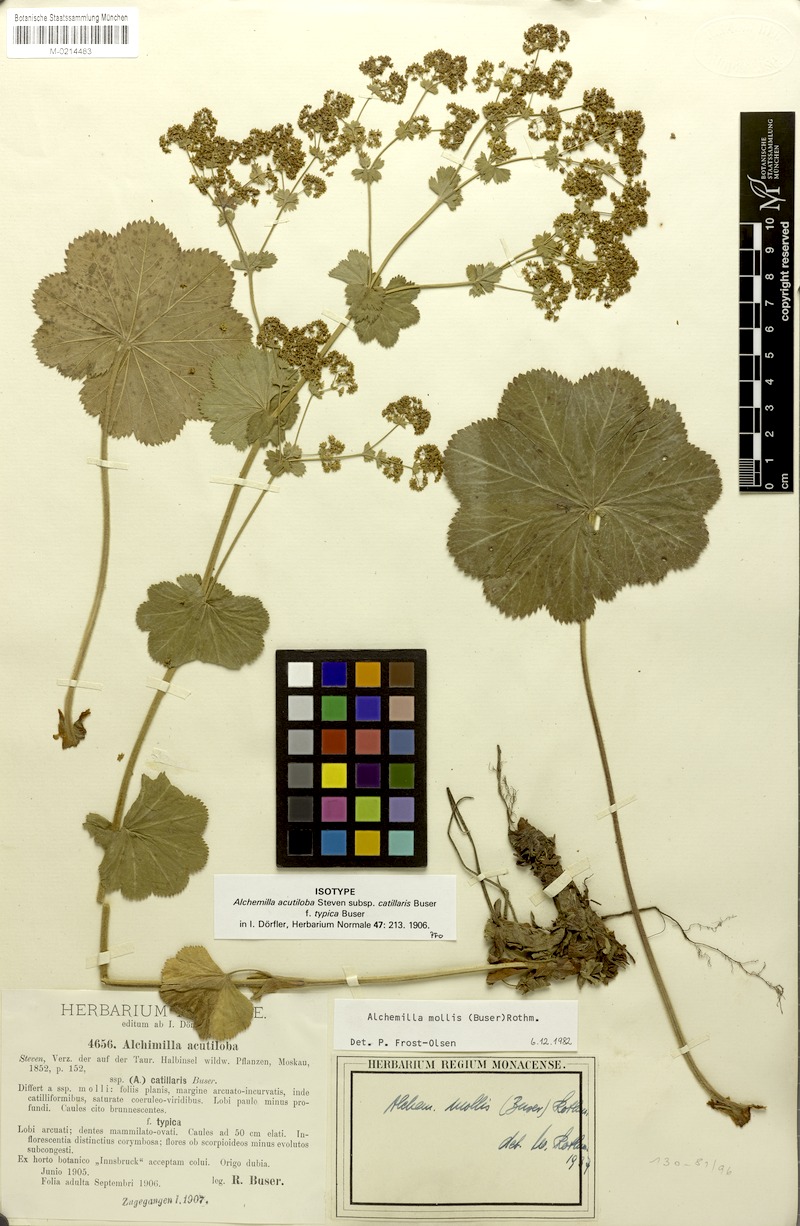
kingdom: Plantae
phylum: Tracheophyta
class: Magnoliopsida
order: Rosales
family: Rosaceae
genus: Alchemilla
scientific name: Alchemilla mollis
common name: Lady's-mantle
